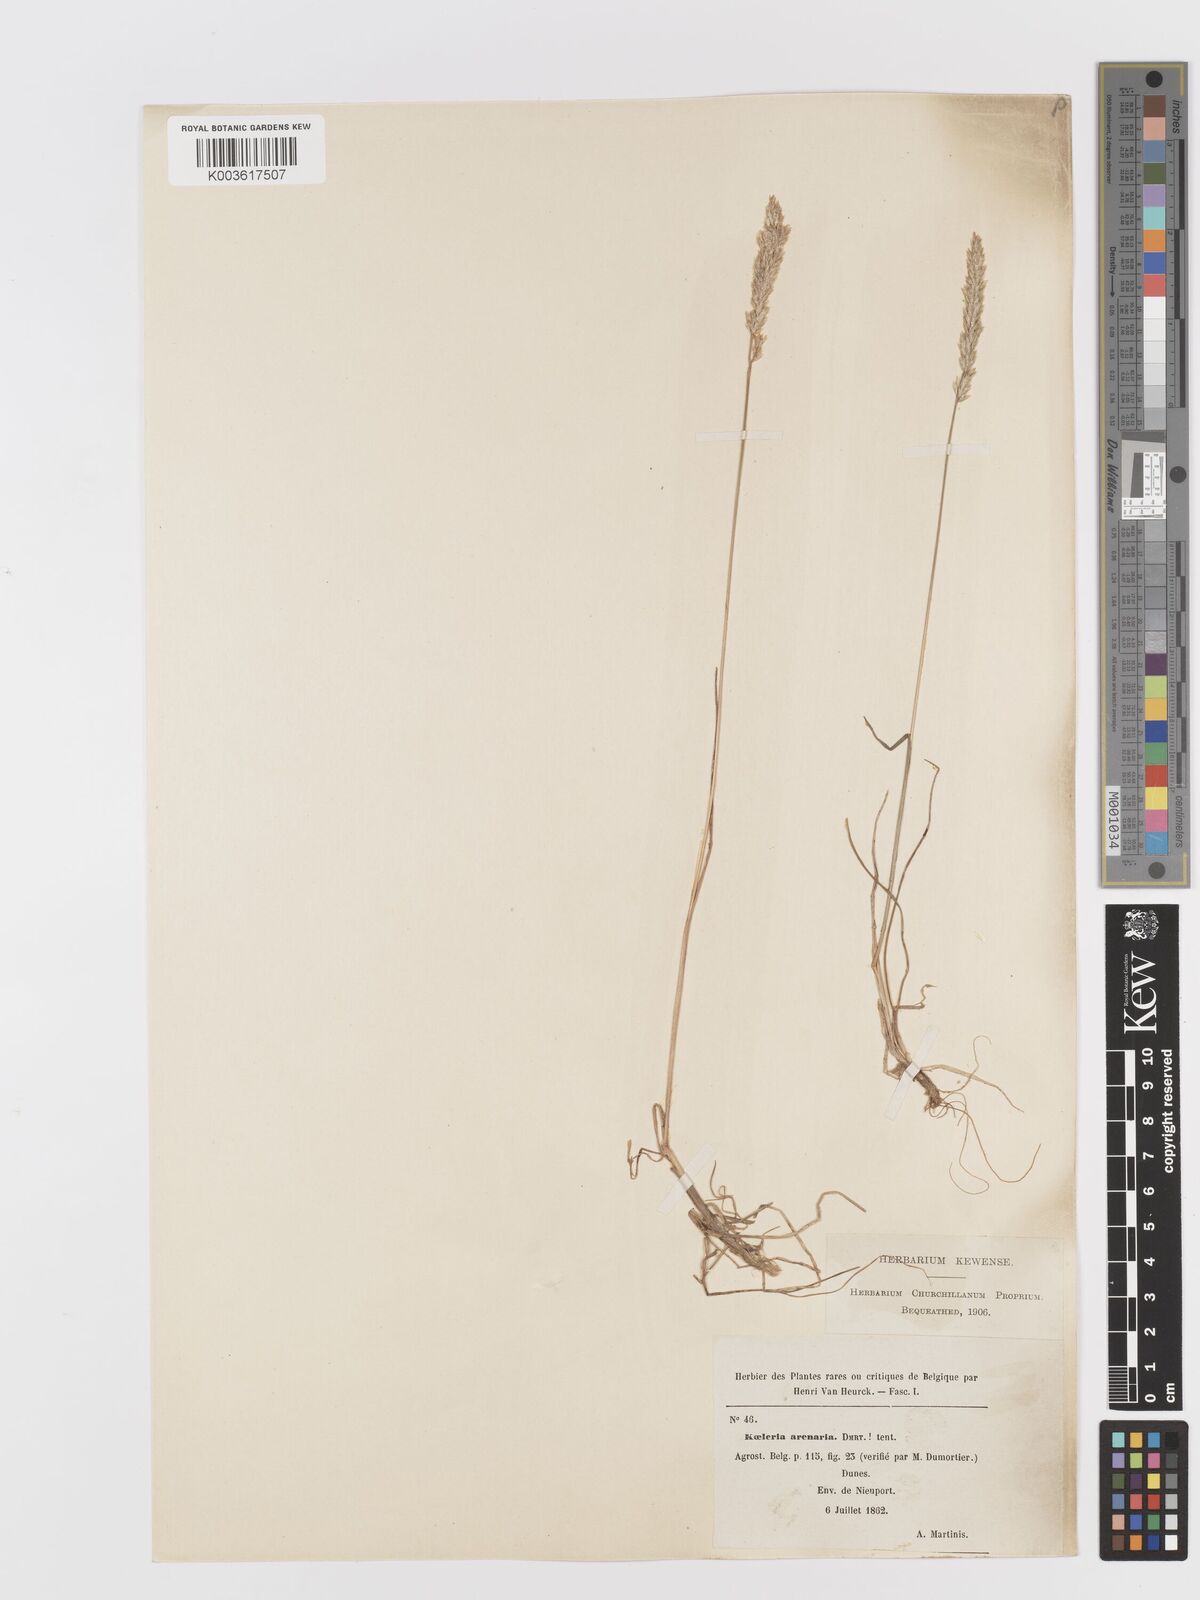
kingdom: Plantae
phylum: Tracheophyta
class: Liliopsida
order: Poales
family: Poaceae
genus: Koeleria
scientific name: Koeleria
